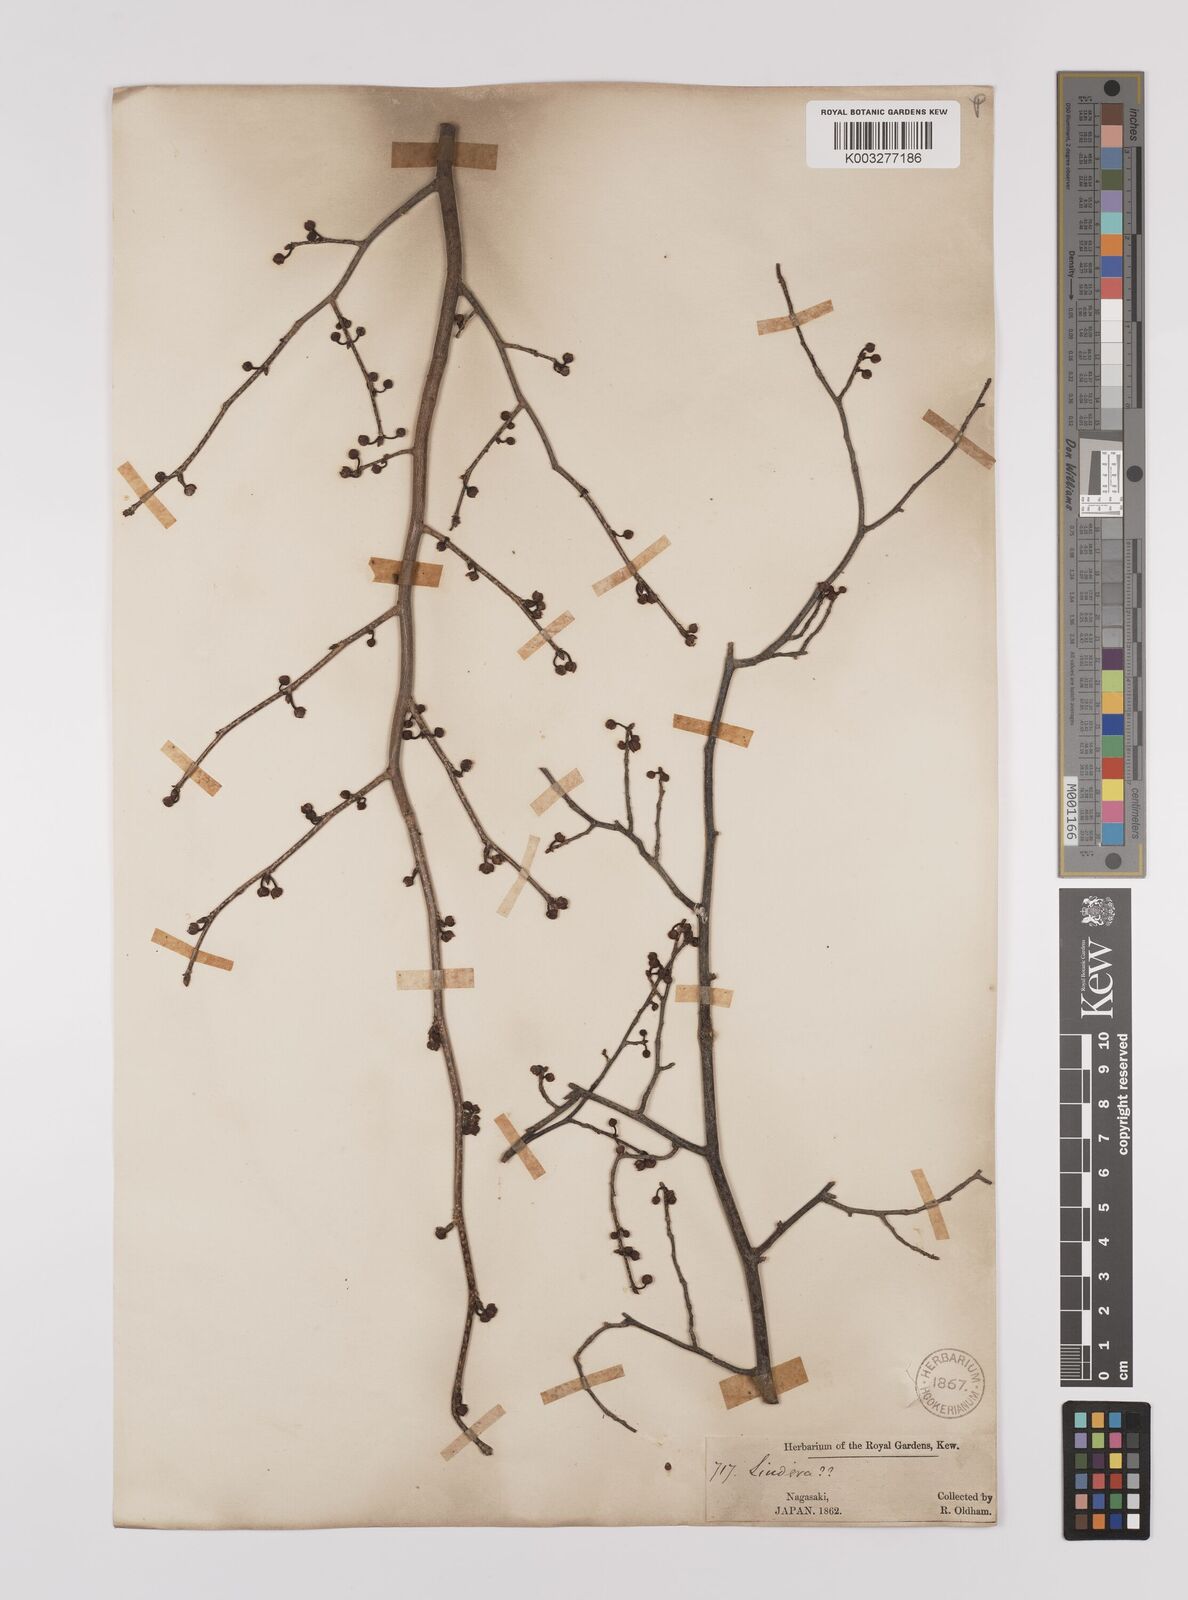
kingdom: Plantae
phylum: Tracheophyta
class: Magnoliopsida
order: Laurales
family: Lauraceae
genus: Lindera
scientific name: Lindera citriodora
